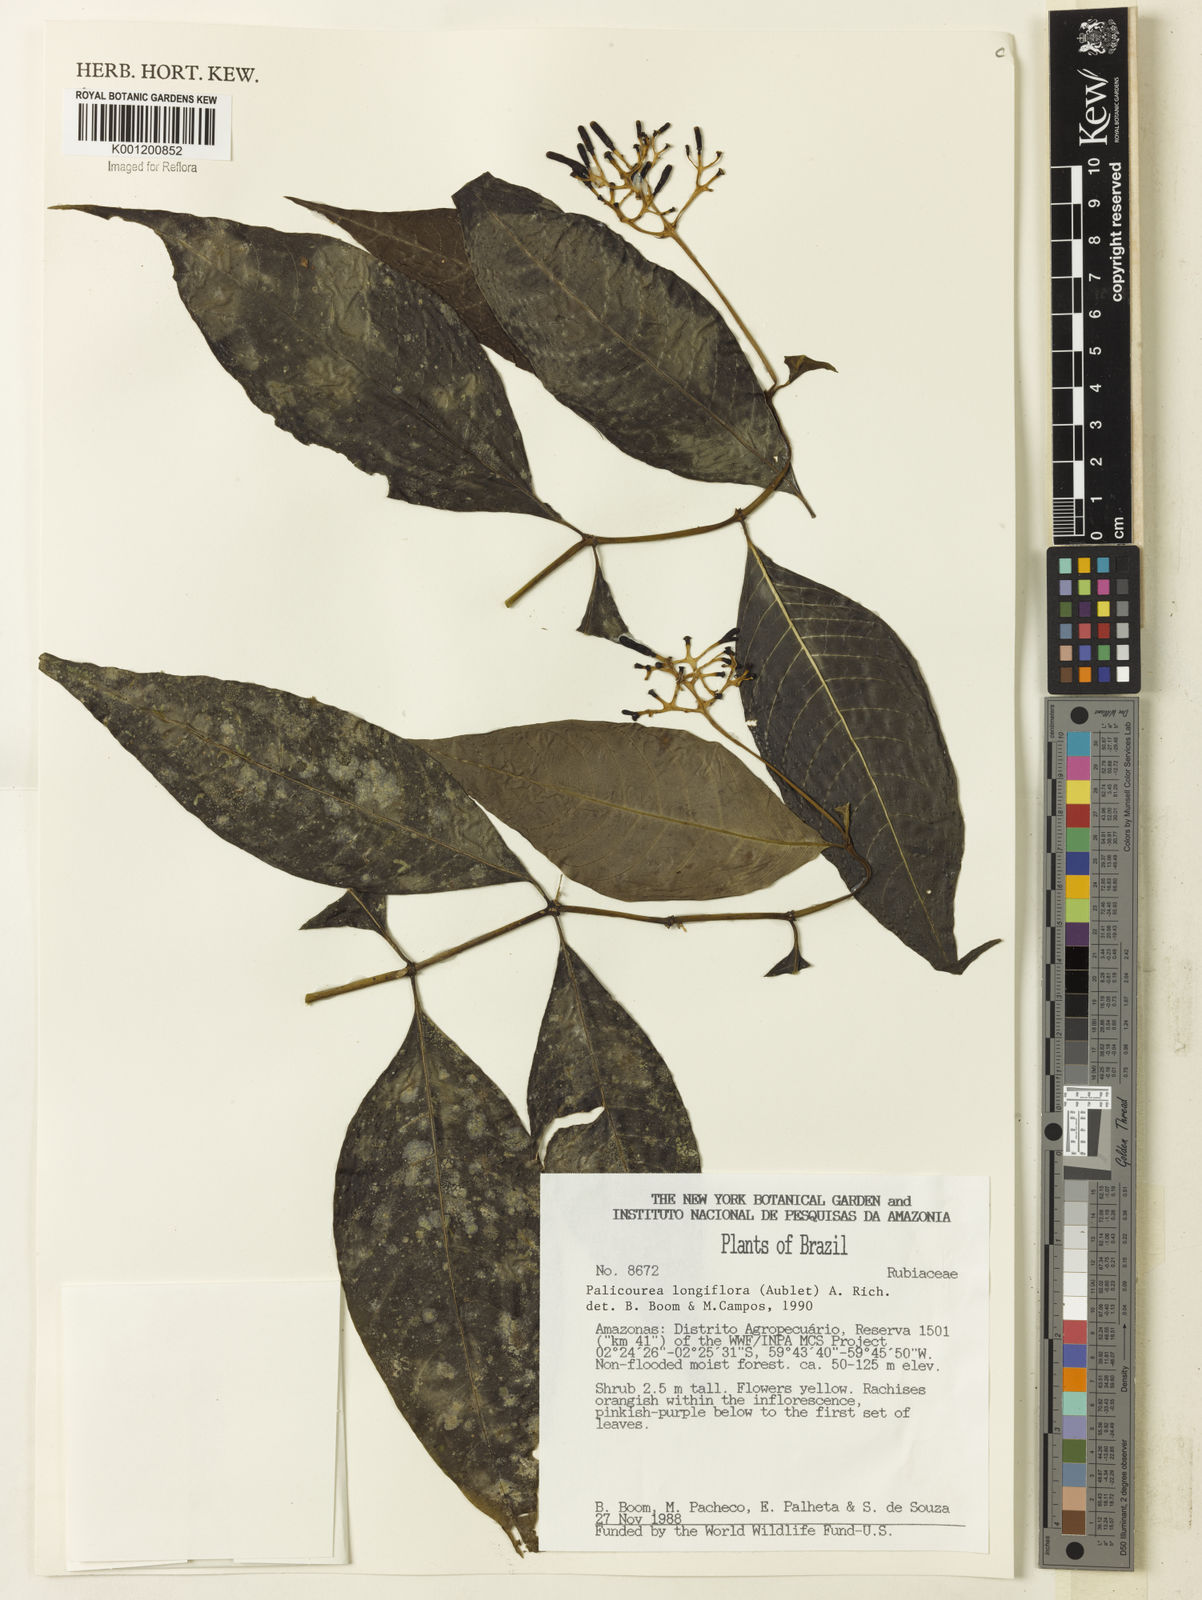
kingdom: Plantae
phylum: Tracheophyta
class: Magnoliopsida
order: Gentianales
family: Rubiaceae
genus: Palicourea
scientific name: Palicourea longiflora
